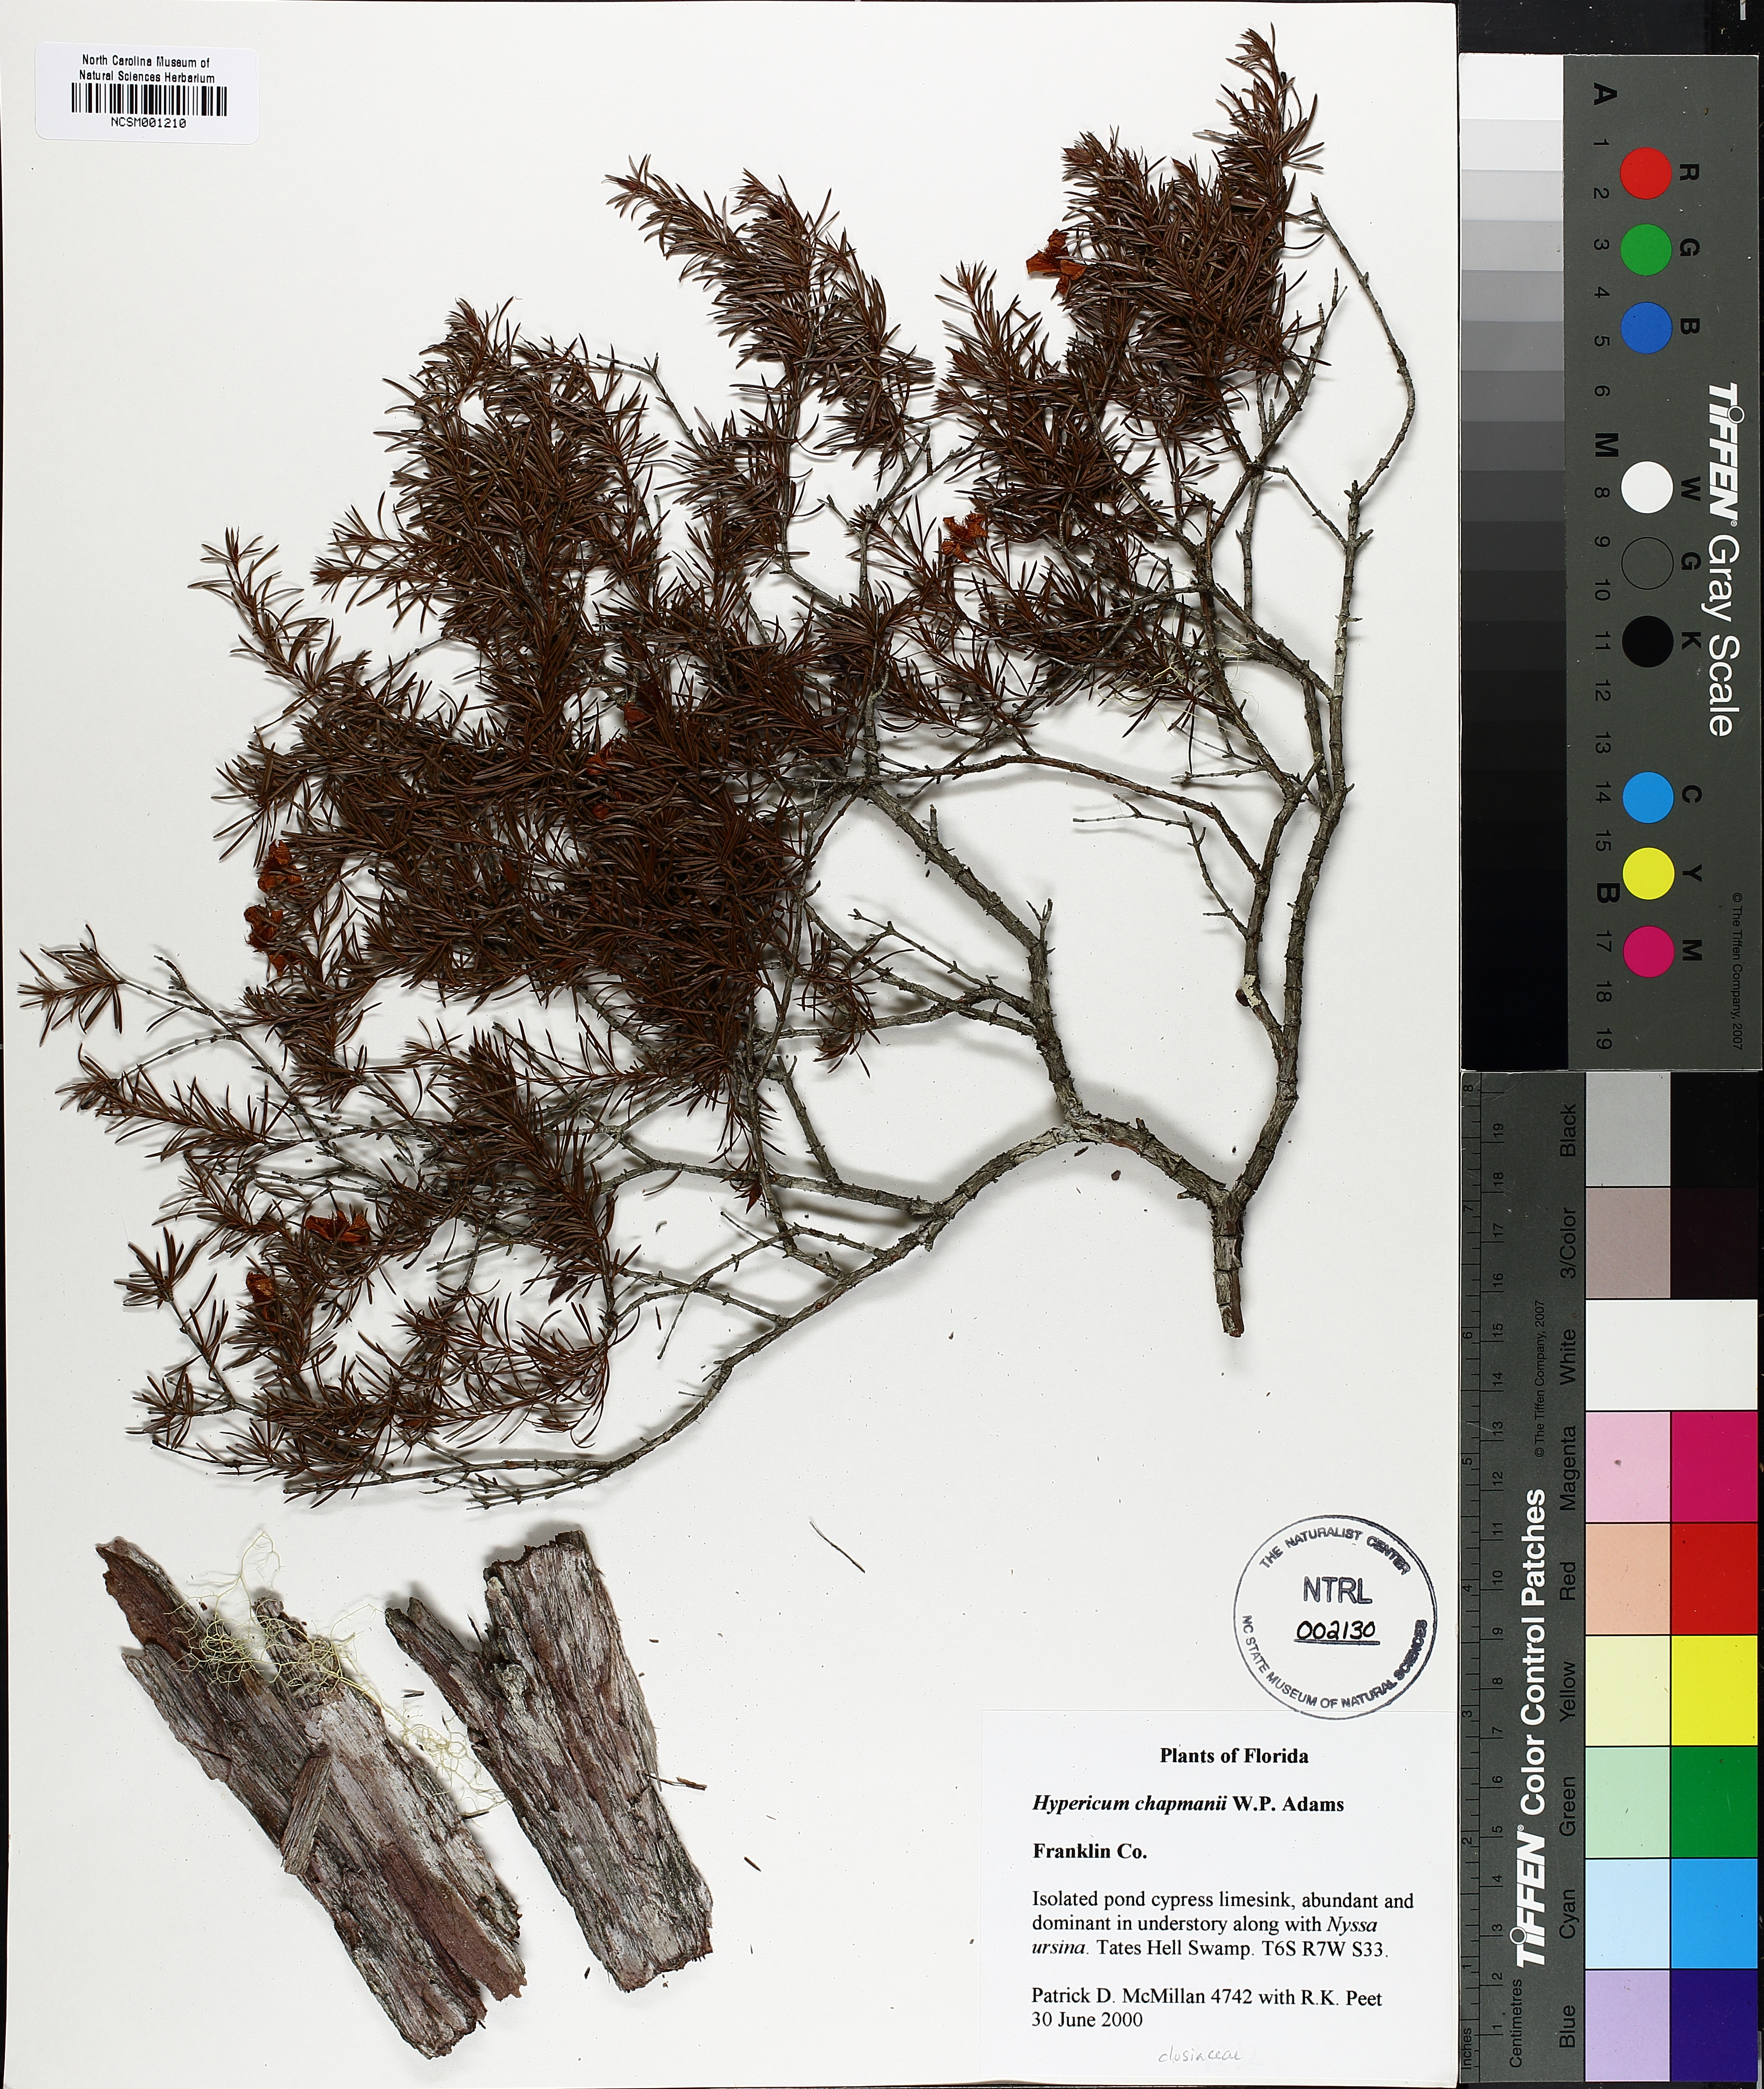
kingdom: Plantae
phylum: Tracheophyta
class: Magnoliopsida
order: Malpighiales
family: Hypericaceae
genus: Hypericum
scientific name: Hypericum chapmanii
